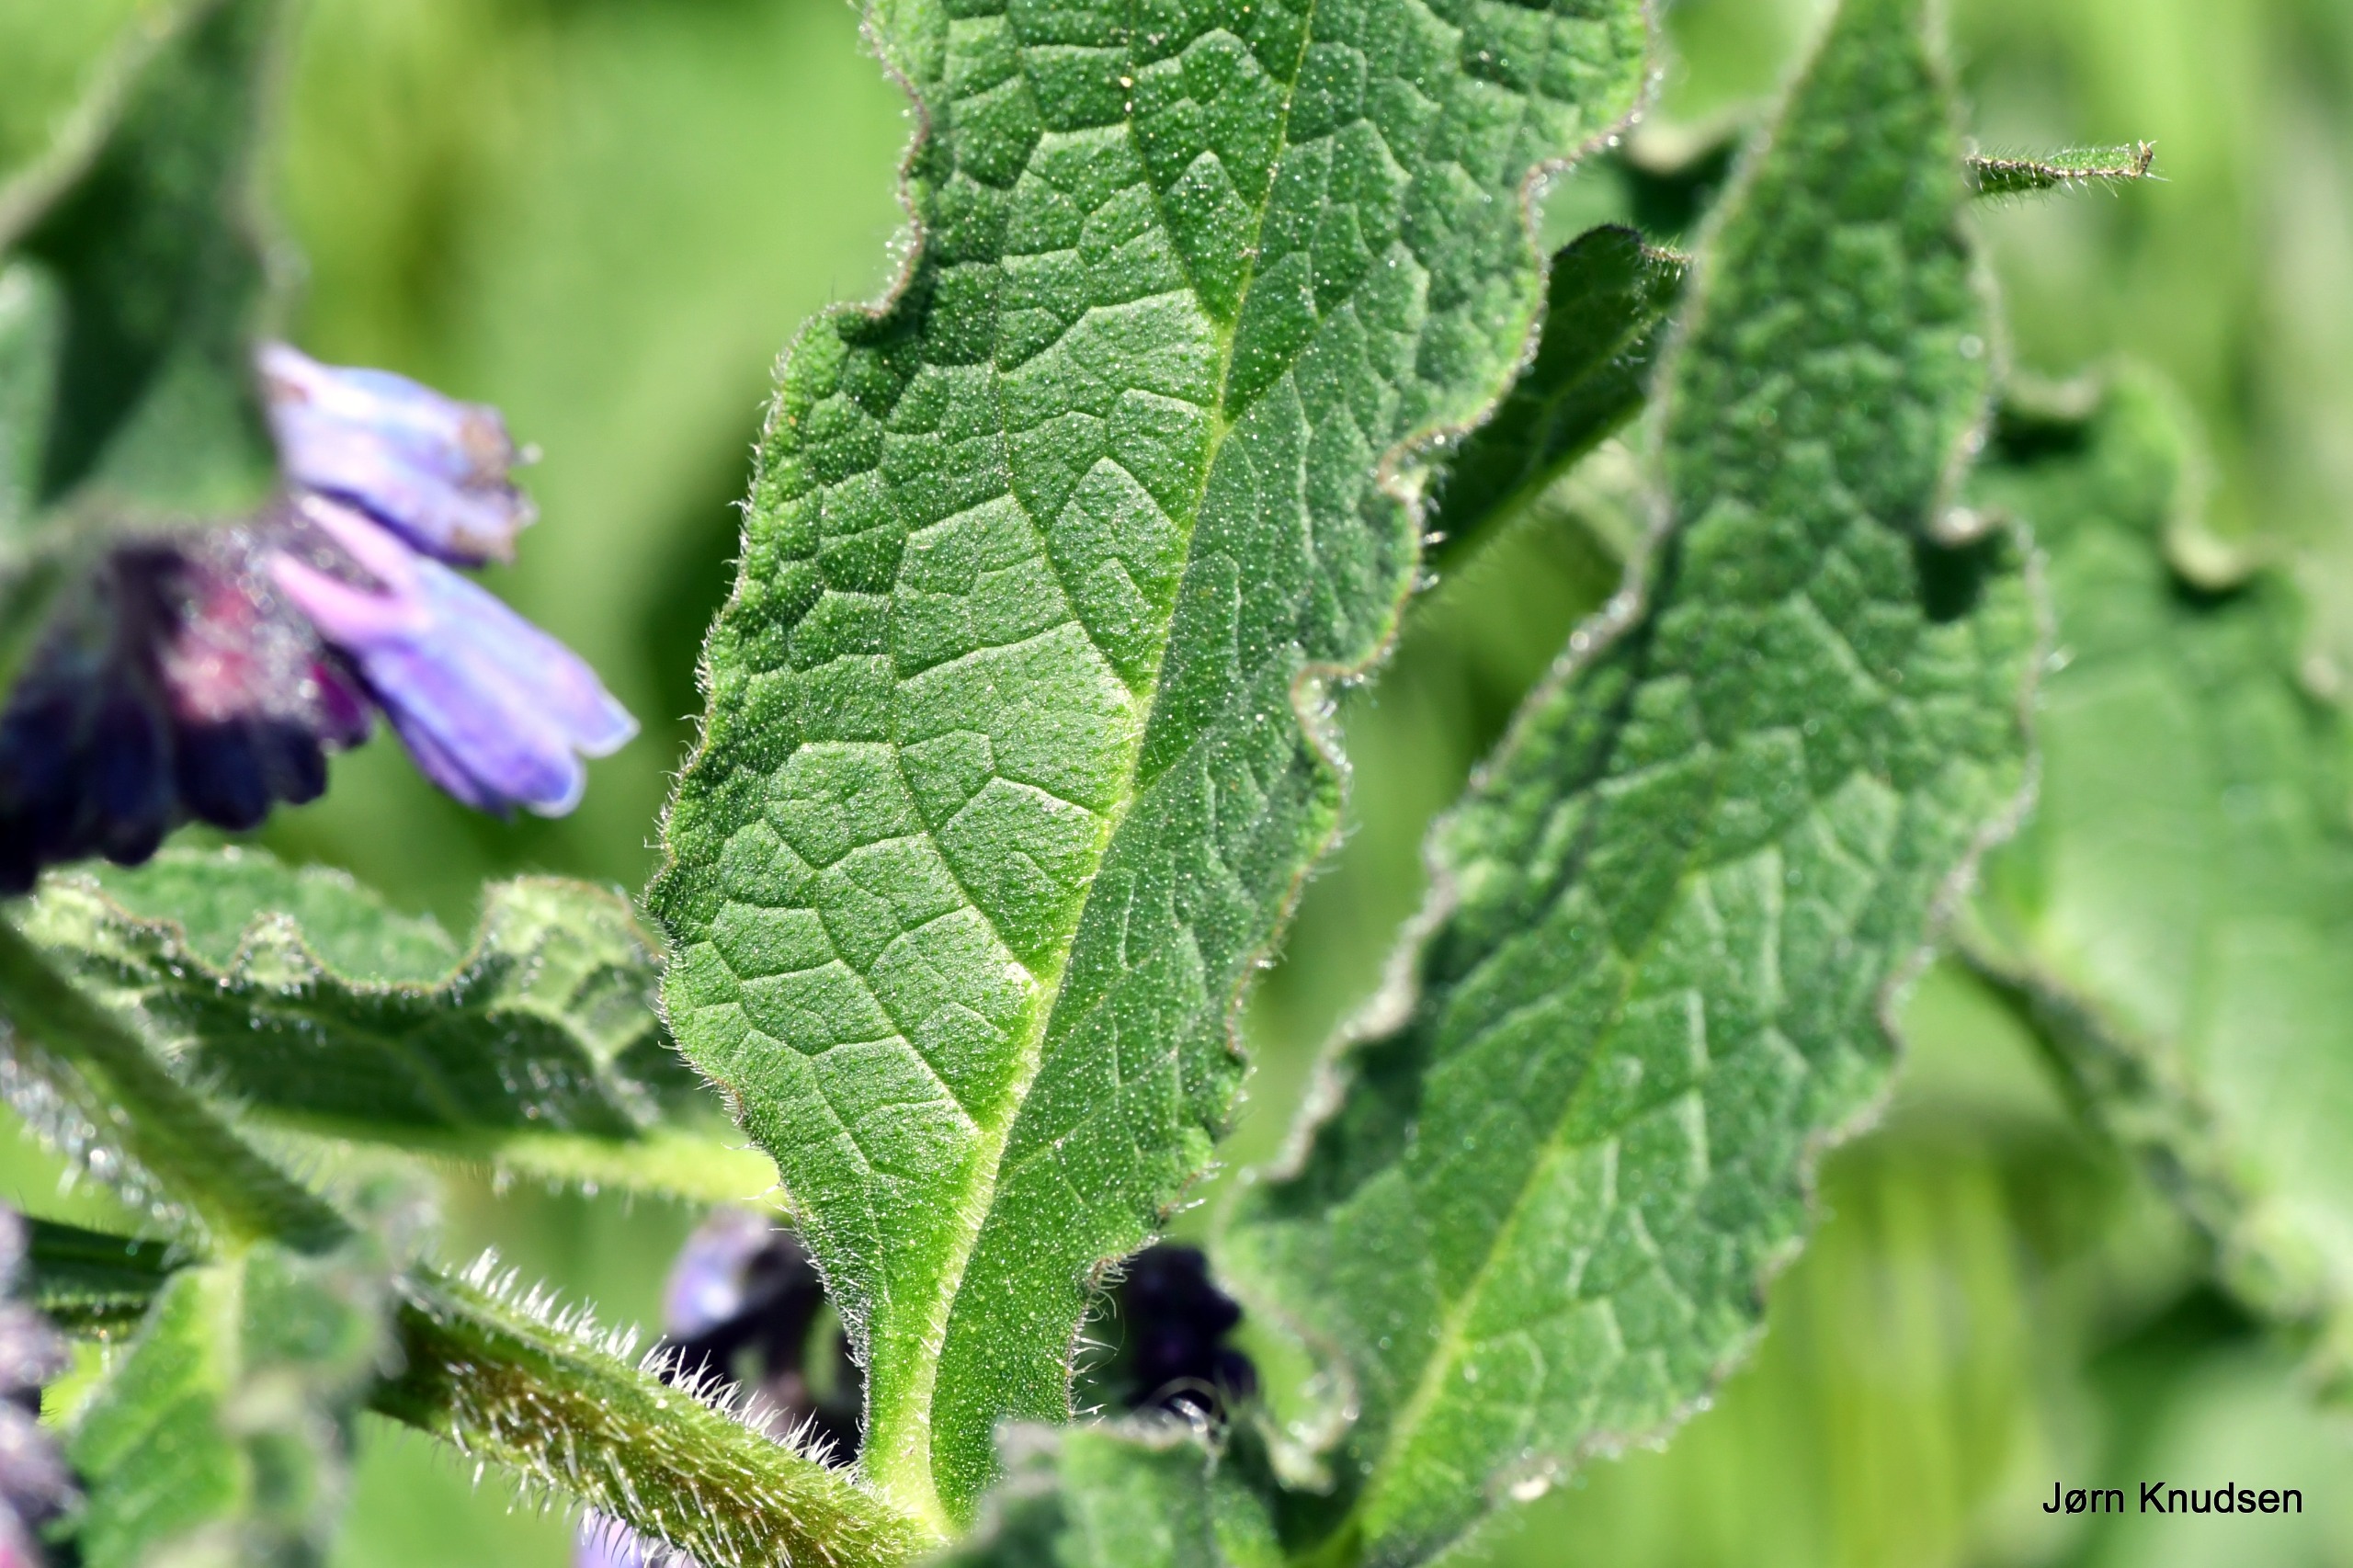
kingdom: Plantae
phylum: Tracheophyta
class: Magnoliopsida
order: Boraginales
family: Boraginaceae
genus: Symphytum
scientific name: Symphytum uplandicum
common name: Foder-kulsukker
